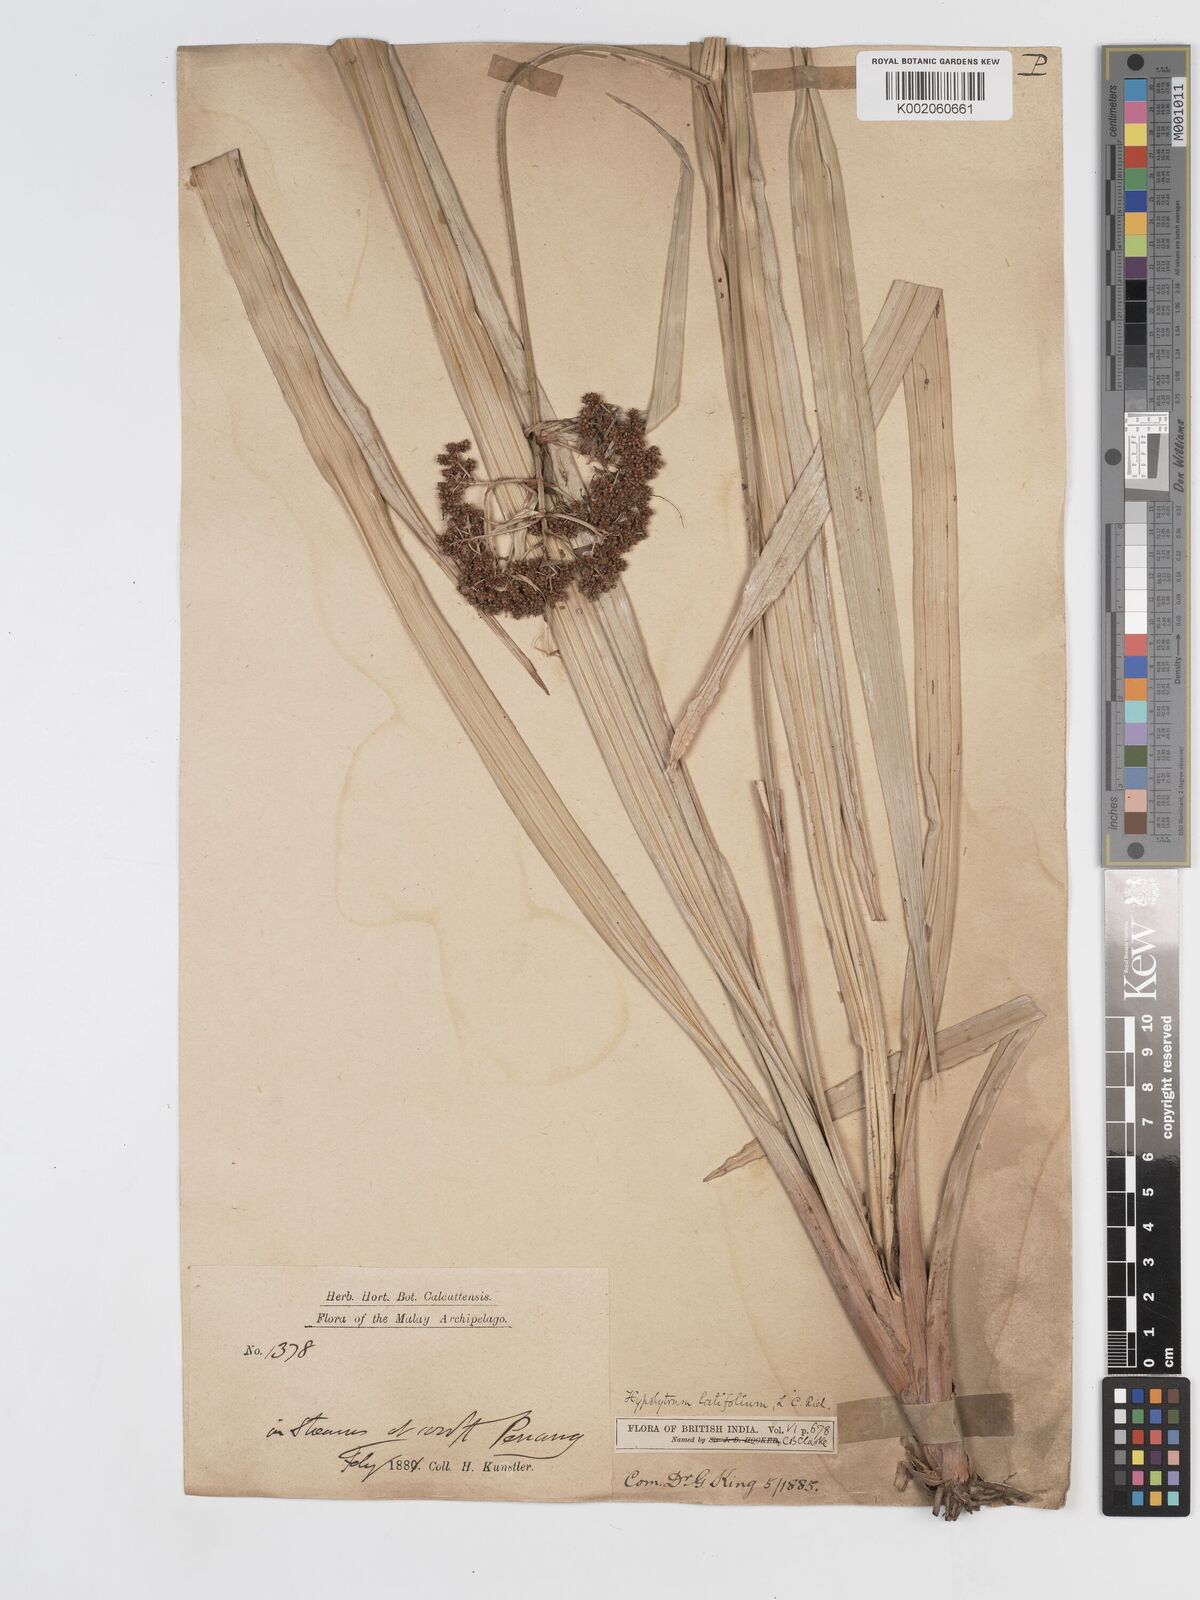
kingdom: Plantae
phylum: Tracheophyta
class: Liliopsida
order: Poales
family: Cyperaceae
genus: Hypolytrum
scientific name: Hypolytrum nemorum
